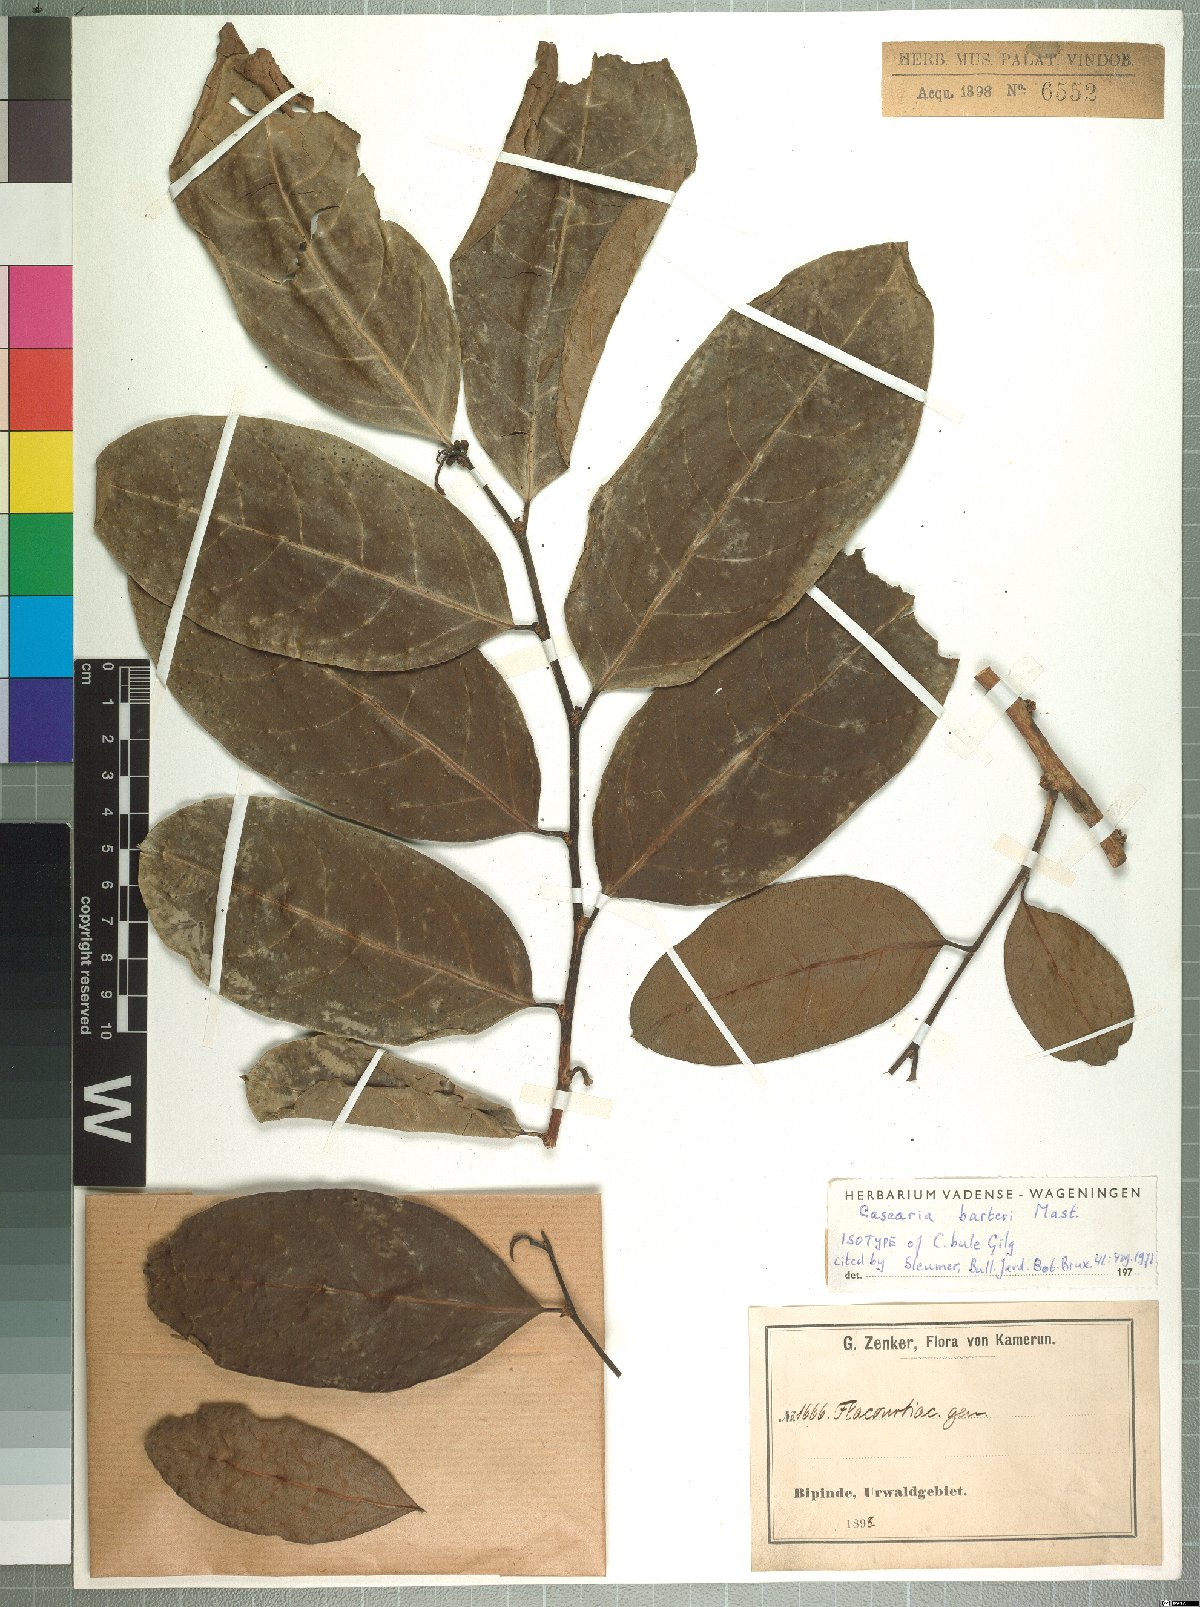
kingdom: Plantae
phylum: Tracheophyta
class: Magnoliopsida
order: Malpighiales
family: Salicaceae
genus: Casearia
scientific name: Casearia barteri
